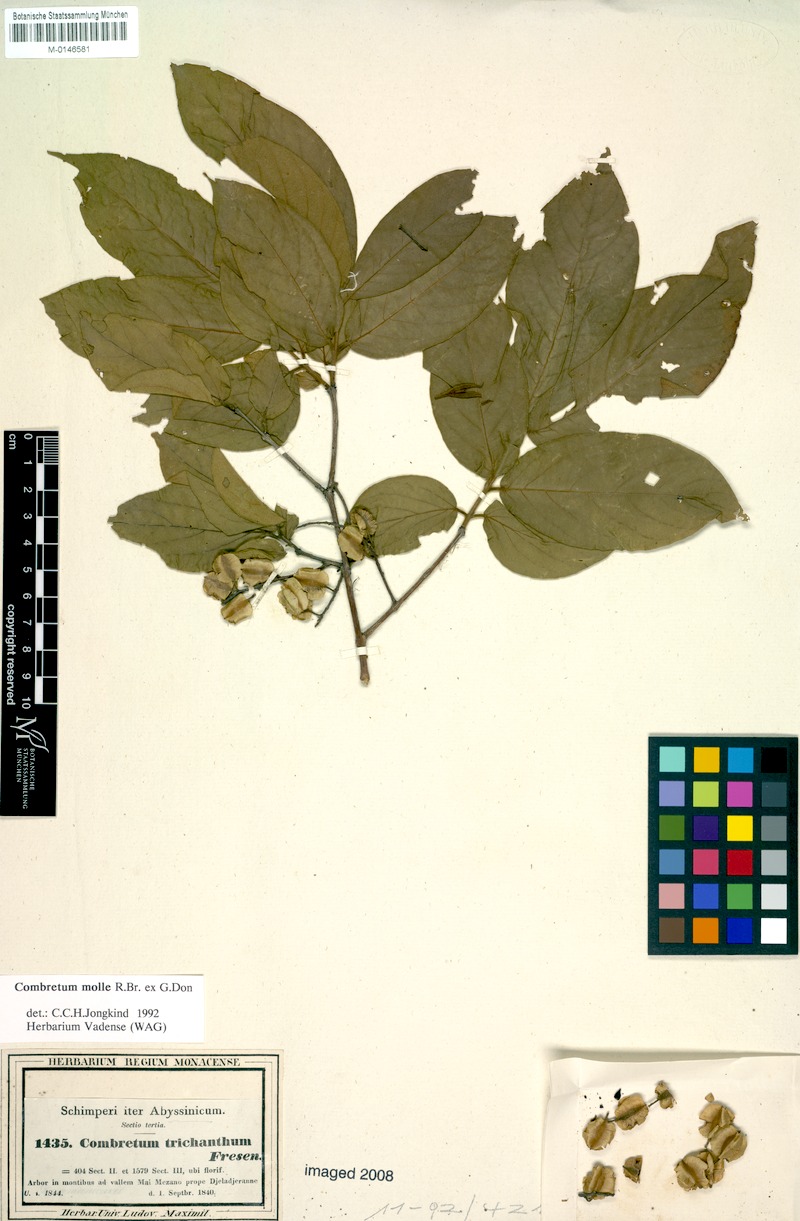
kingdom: Plantae
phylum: Tracheophyta
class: Magnoliopsida
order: Myrtales
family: Combretaceae
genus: Combretum
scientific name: Combretum molle
